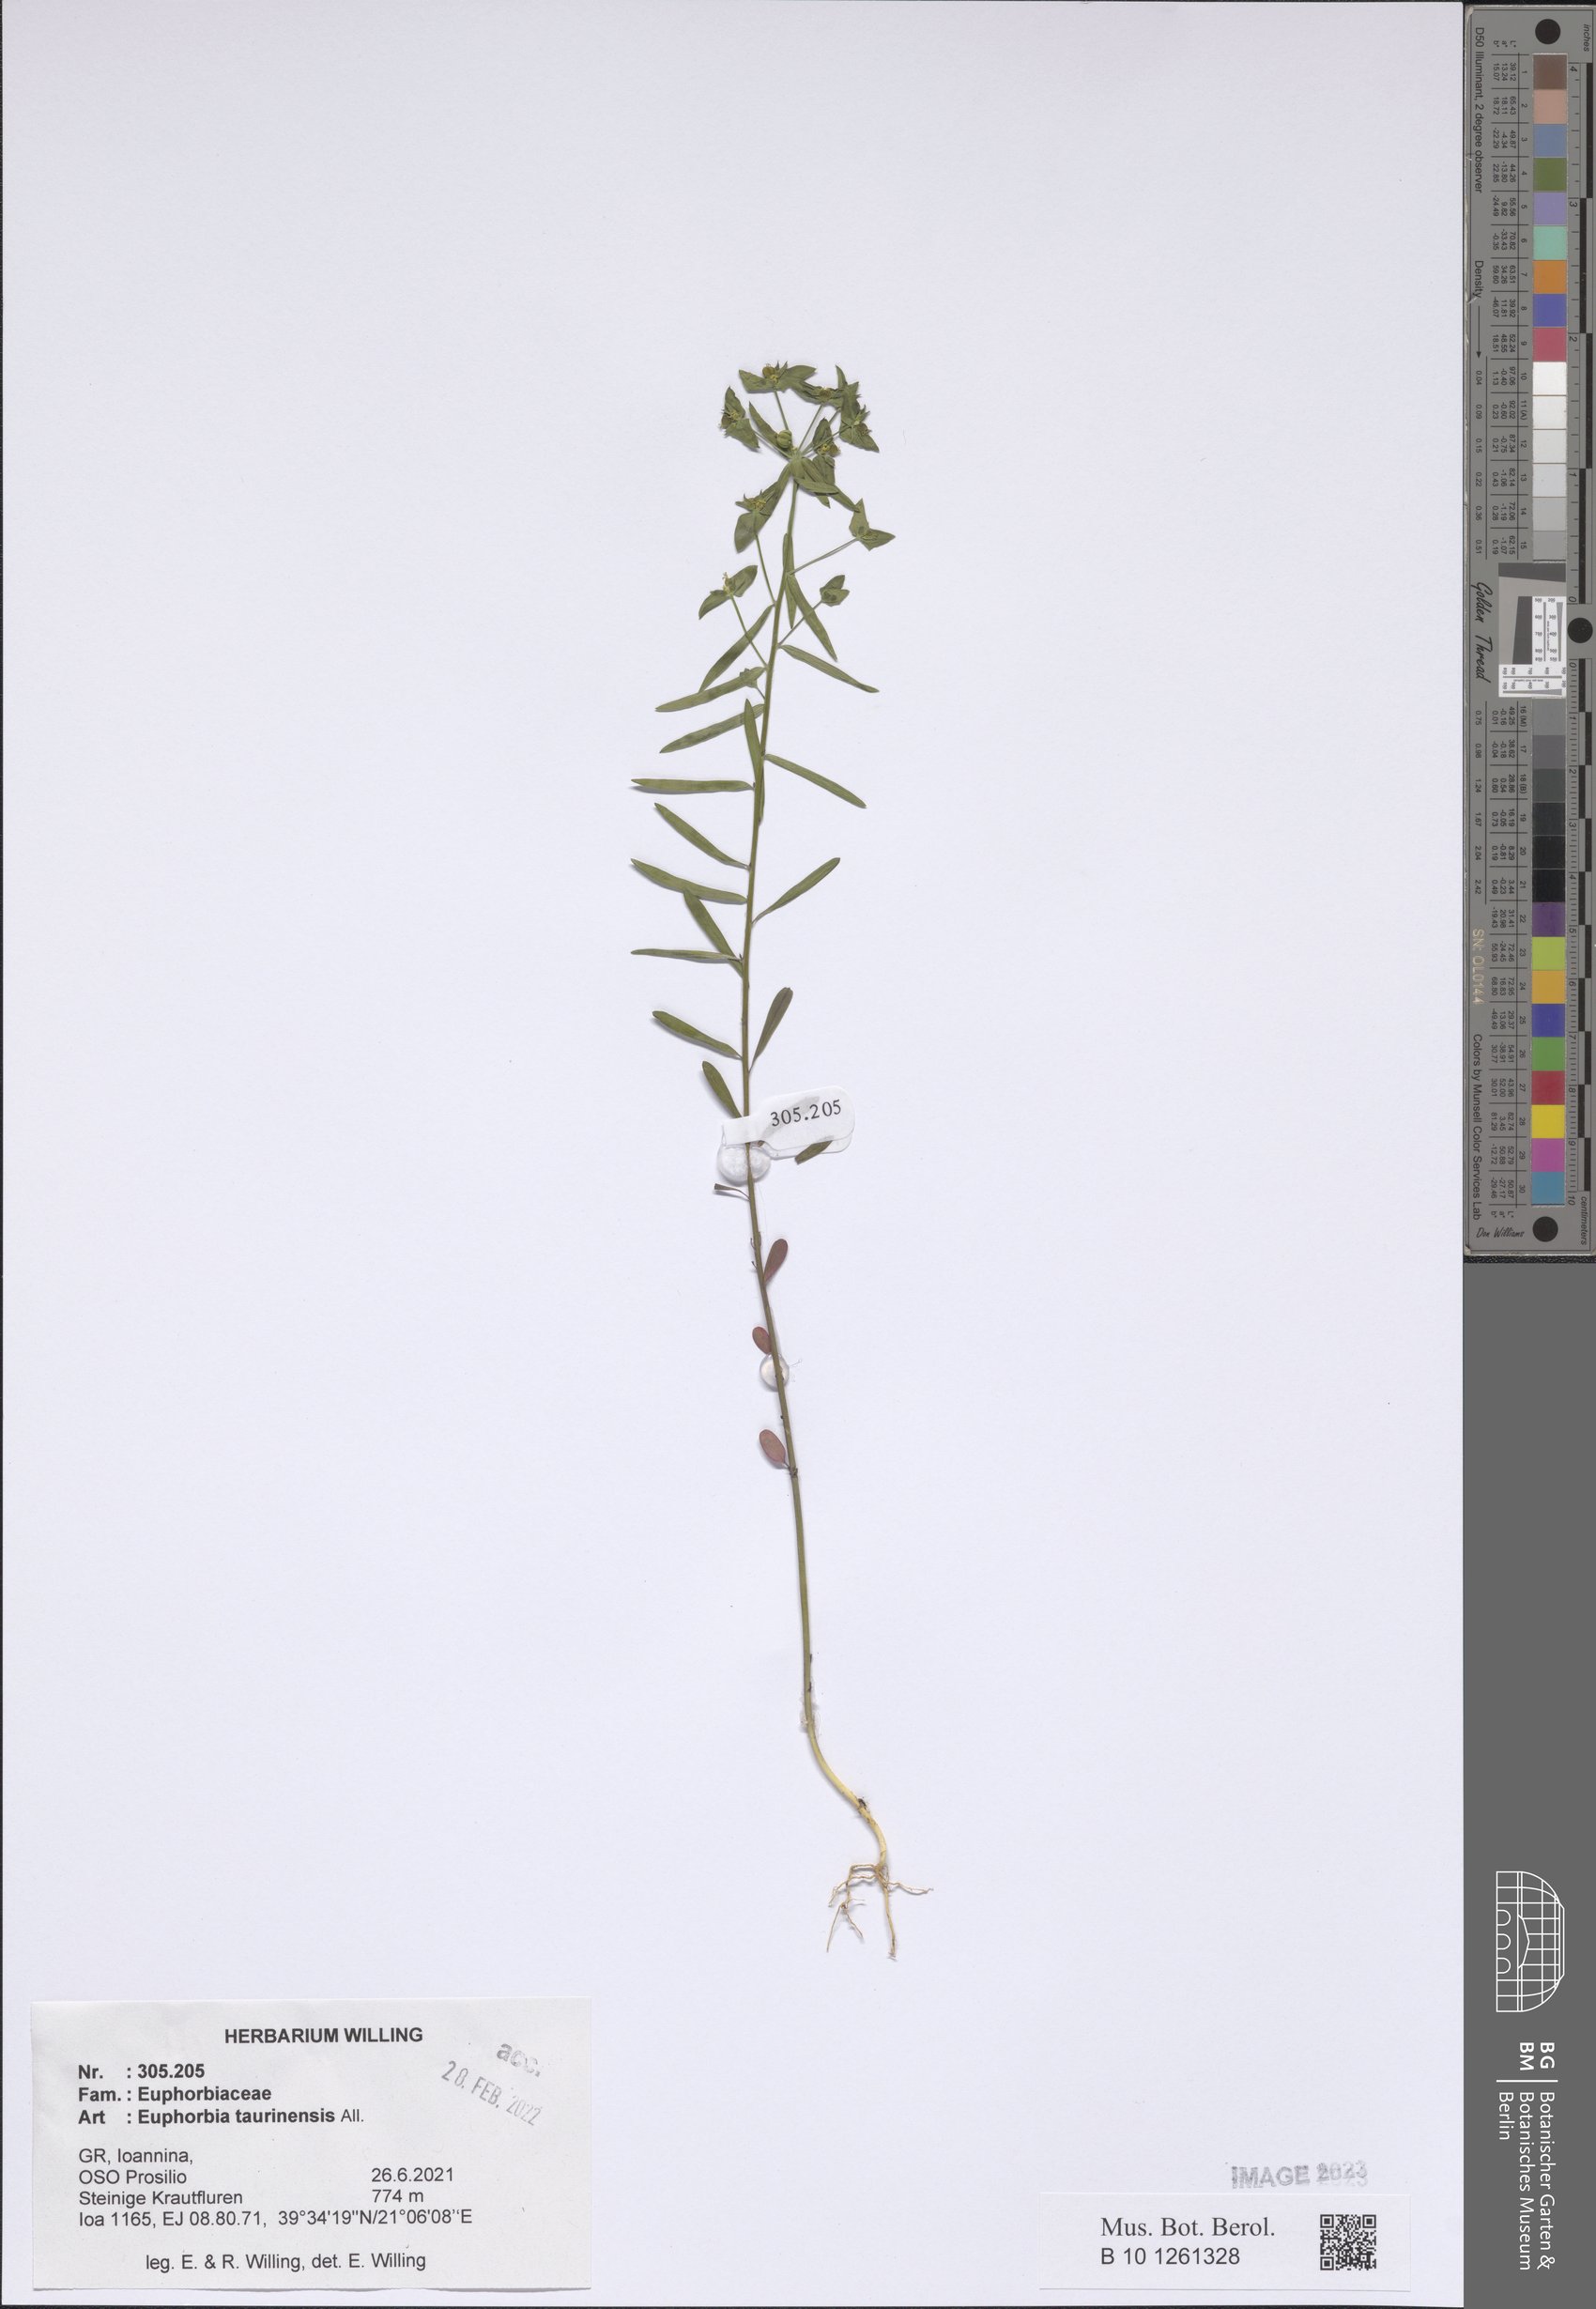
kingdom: Plantae
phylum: Tracheophyta
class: Magnoliopsida
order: Malpighiales
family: Euphorbiaceae
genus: Euphorbia
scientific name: Euphorbia taurinensis
